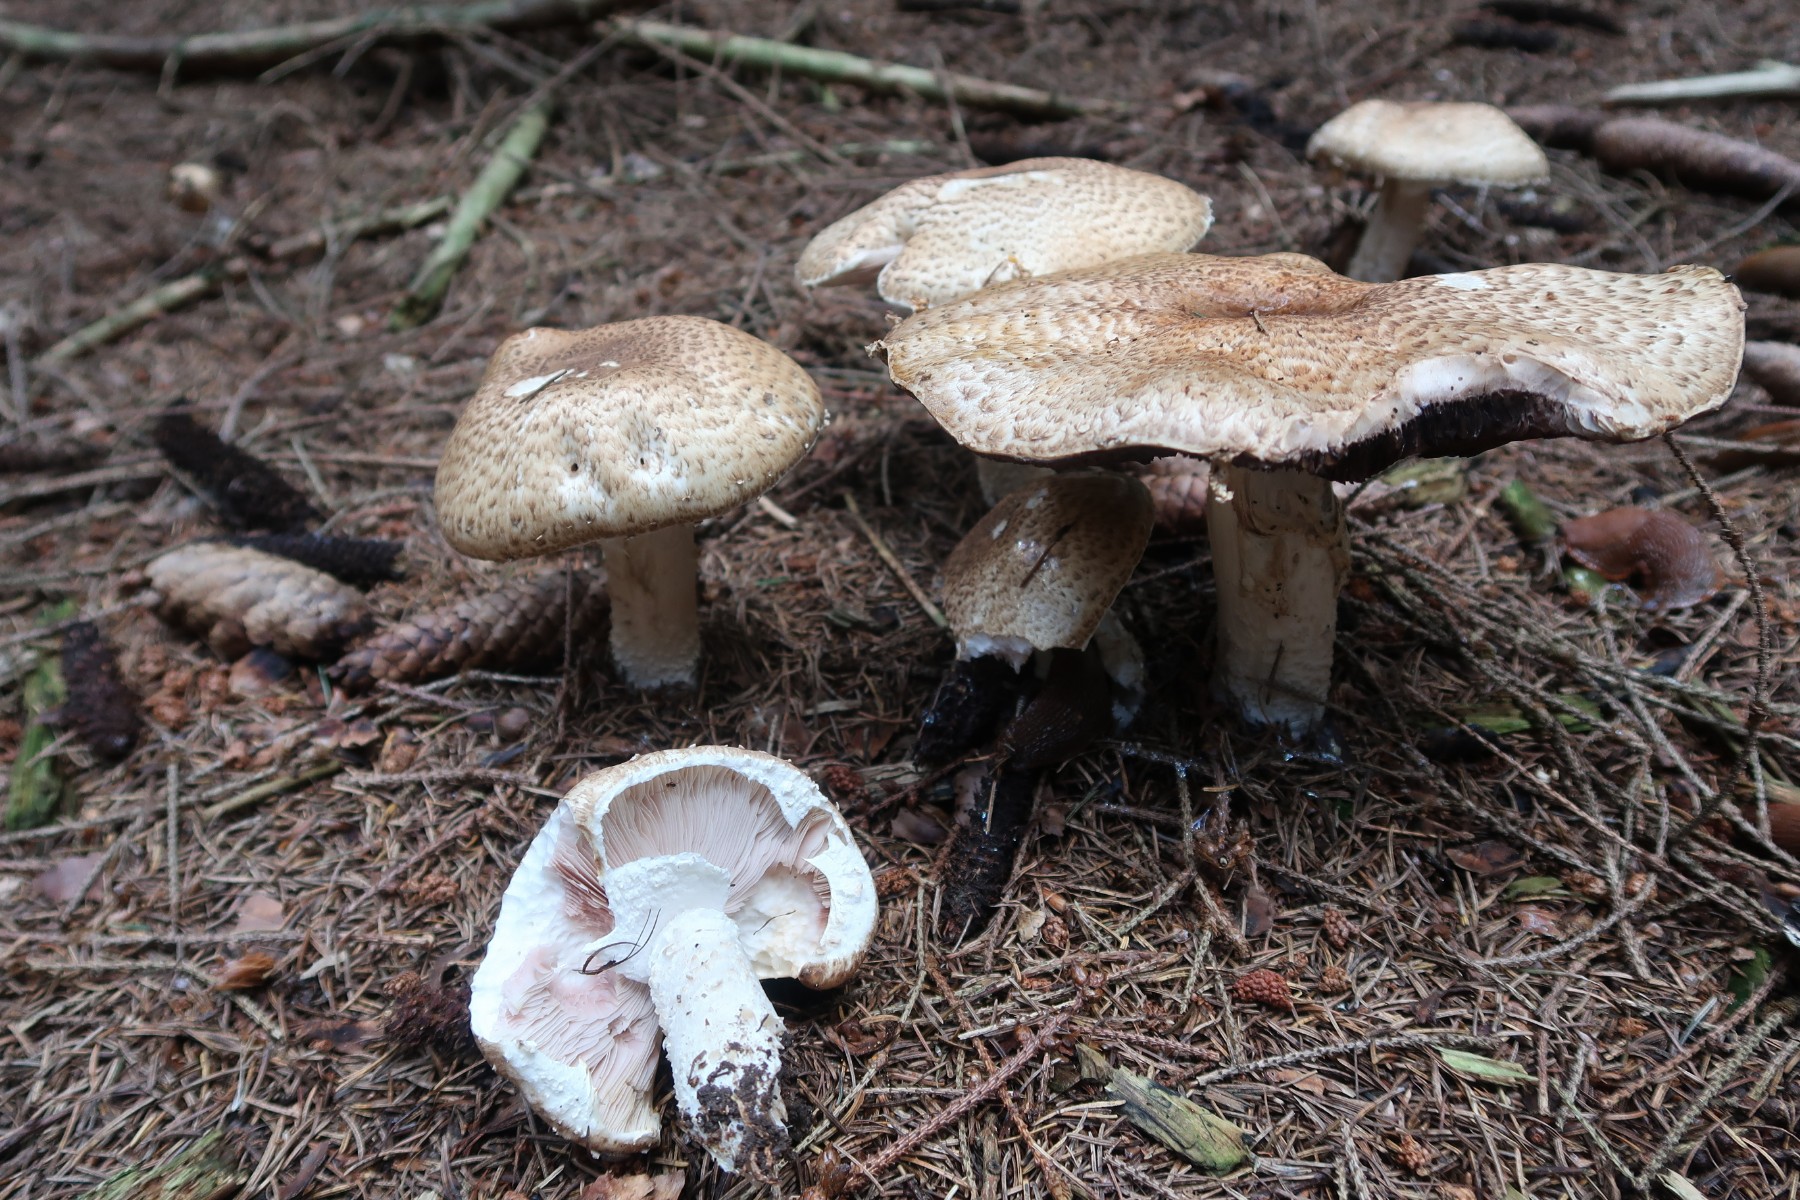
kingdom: Fungi
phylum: Basidiomycota
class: Agaricomycetes
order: Agaricales
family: Agaricaceae
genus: Agaricus
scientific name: Agaricus augustus
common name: prægtig champignon
